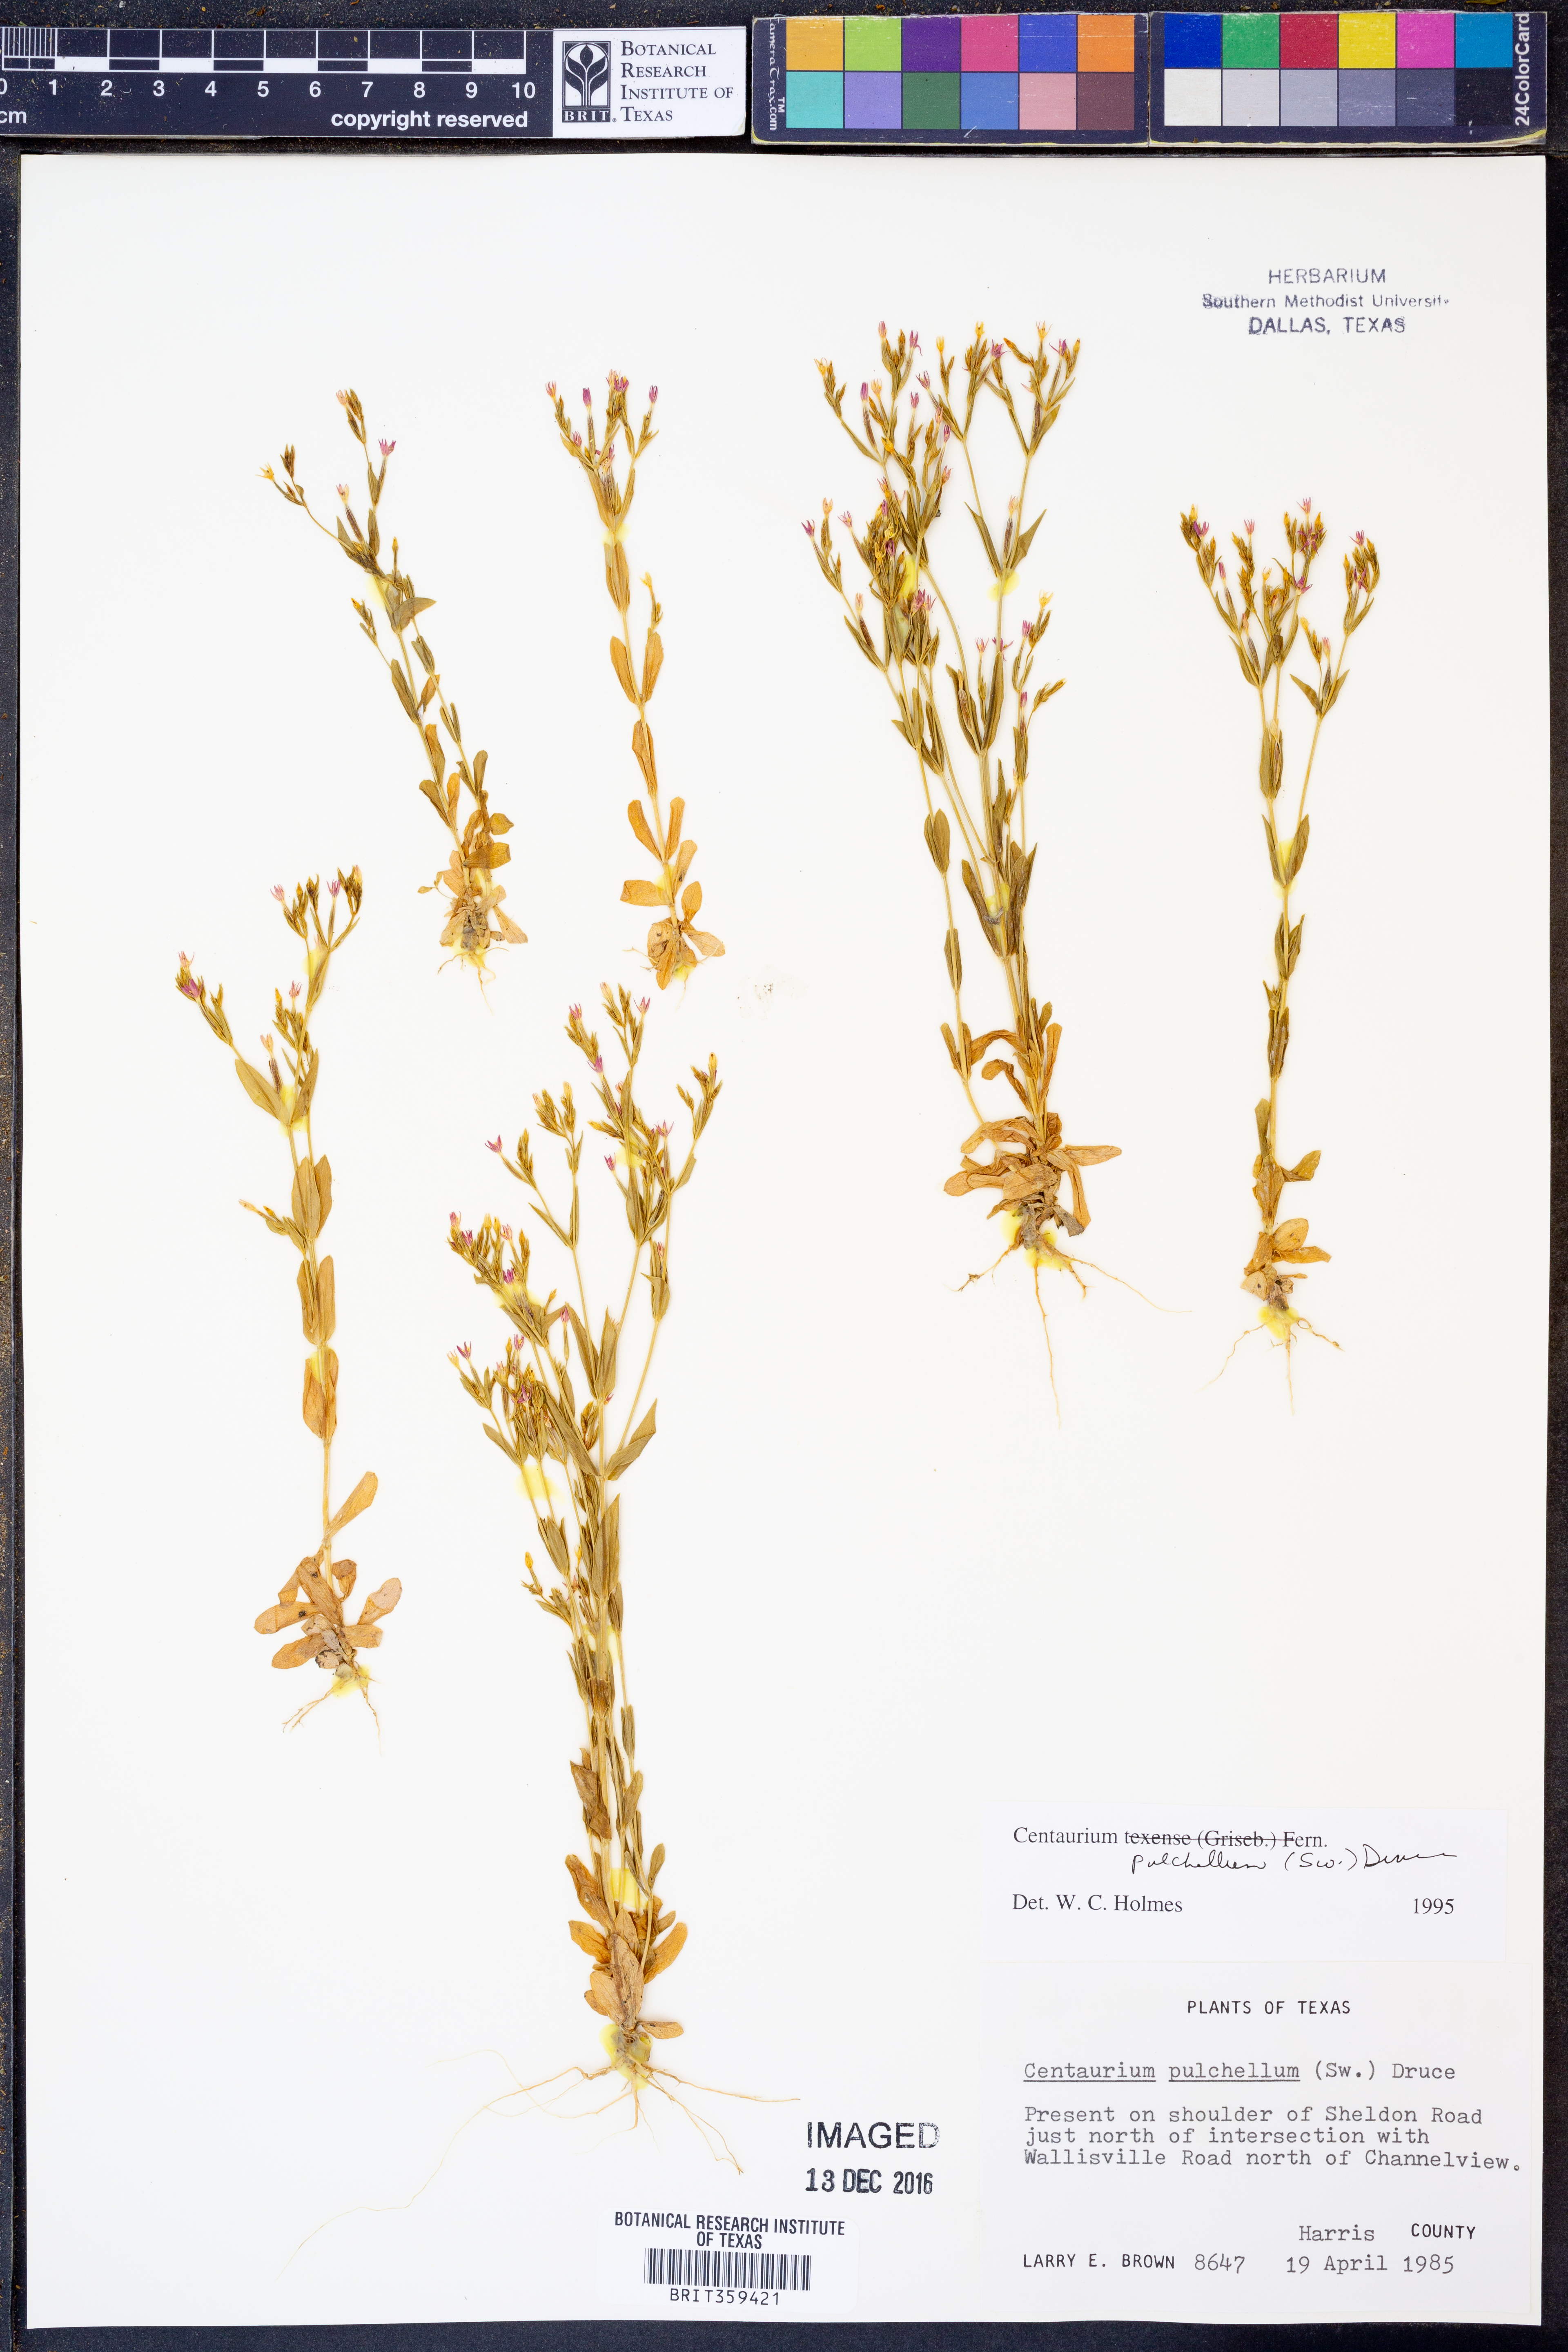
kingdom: Plantae
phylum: Tracheophyta
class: Magnoliopsida
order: Gentianales
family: Gentianaceae
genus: Centaurium
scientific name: Centaurium pulchellum
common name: Lesser centaury
